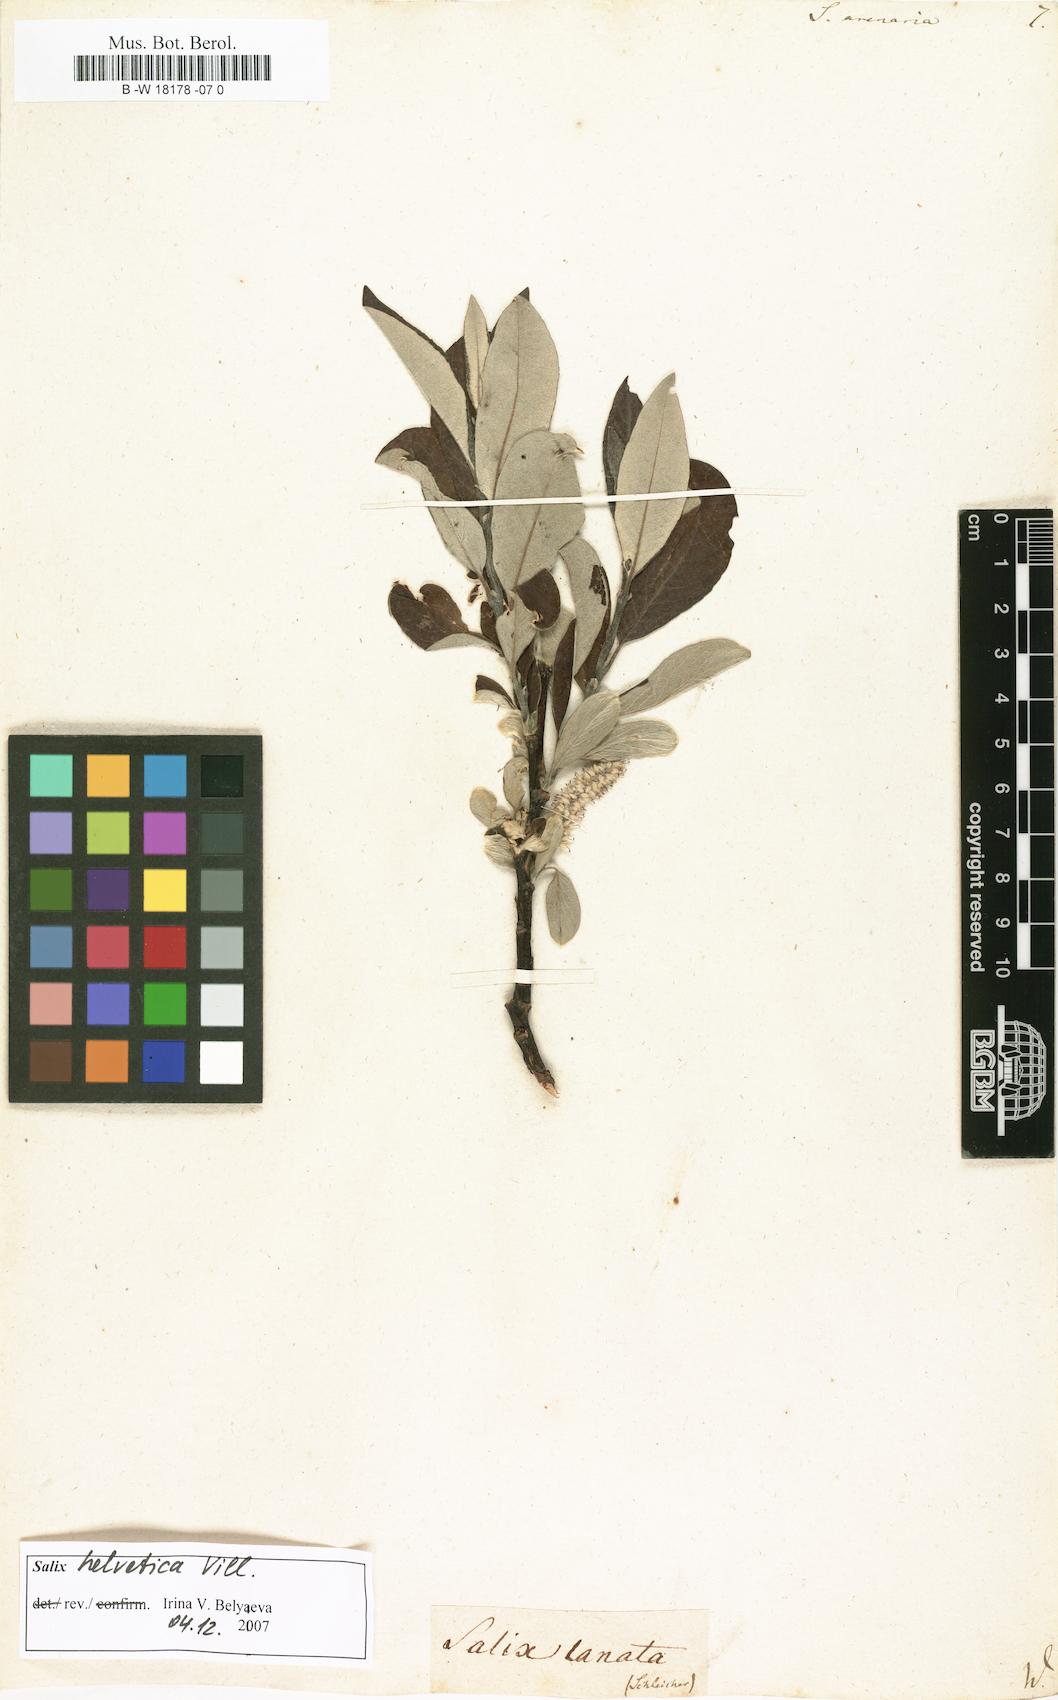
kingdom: Plantae
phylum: Tracheophyta
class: Magnoliopsida
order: Malpighiales
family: Salicaceae
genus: Salix
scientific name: Salix repens
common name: Creeping willow
